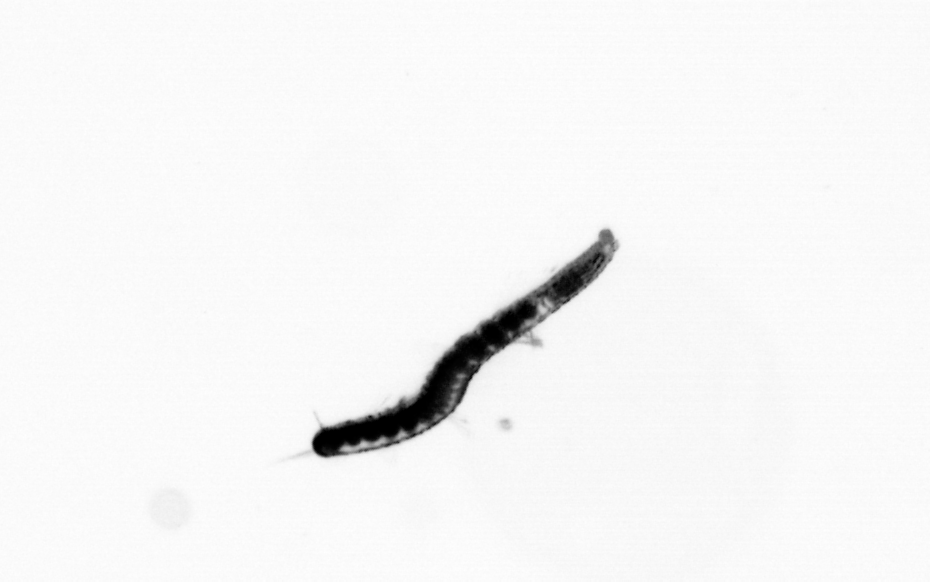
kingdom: Animalia
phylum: Annelida
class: Polychaeta
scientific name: Polychaeta
